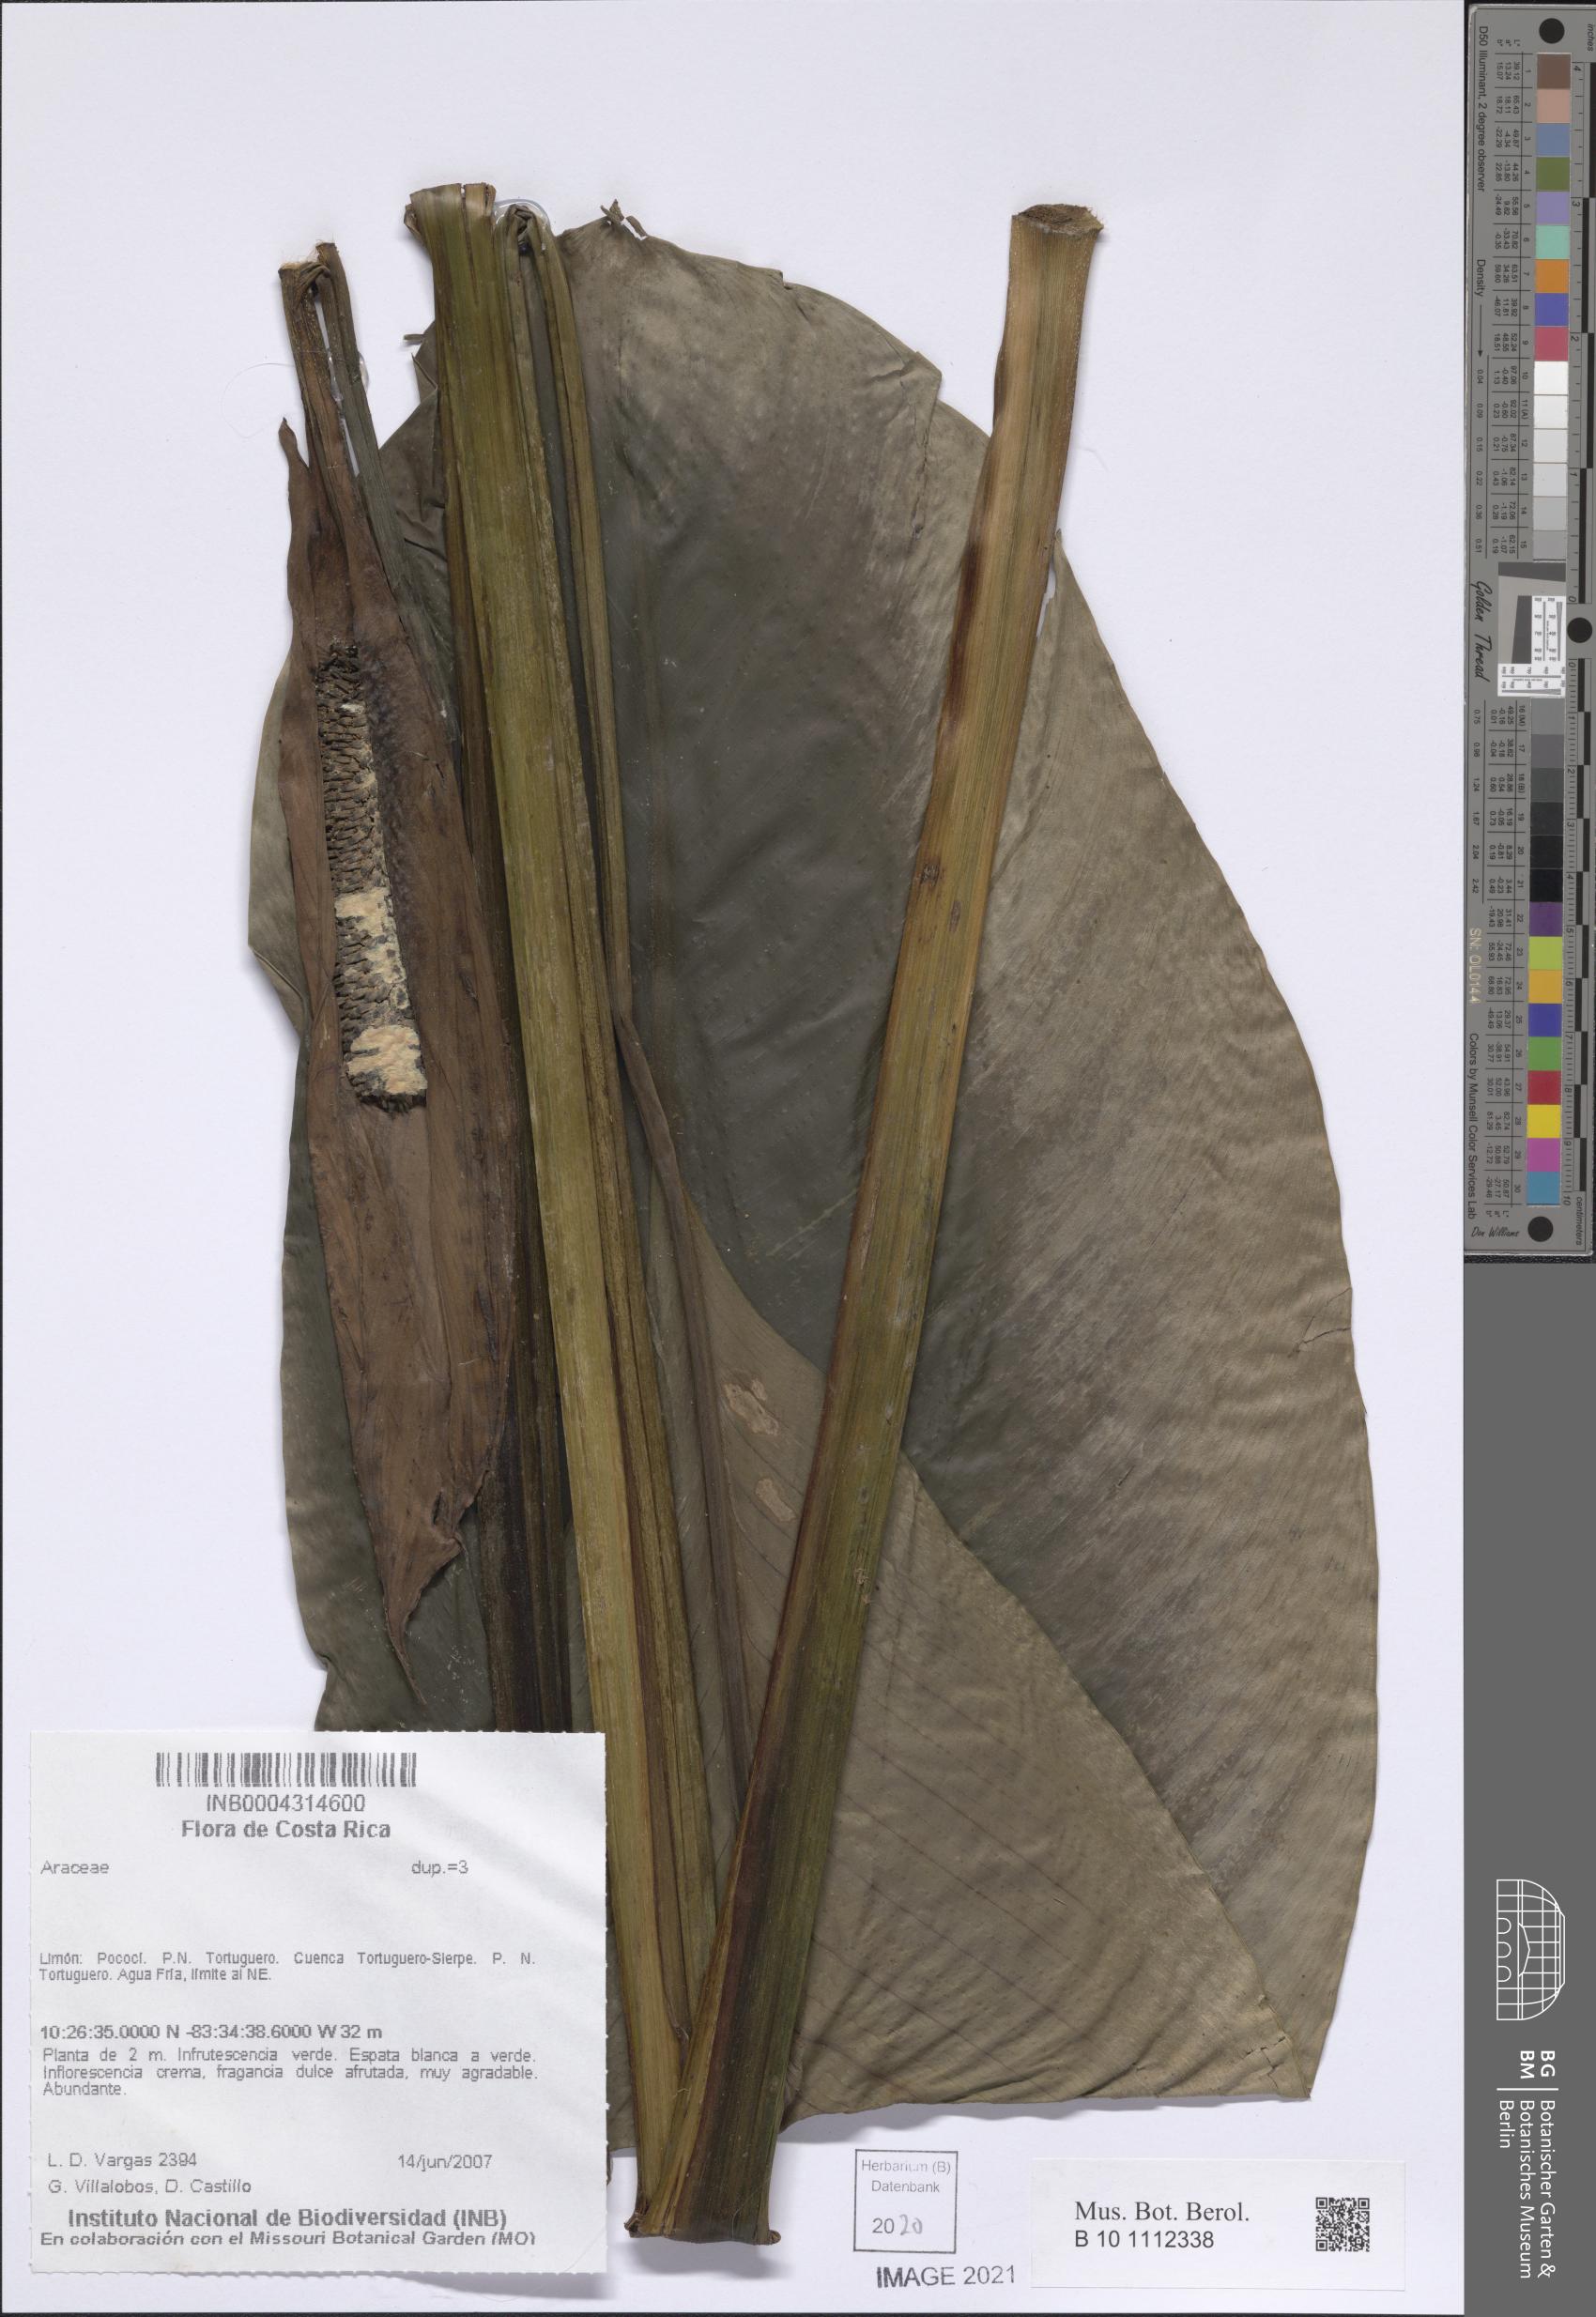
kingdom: Plantae
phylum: Tracheophyta
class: Liliopsida
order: Alismatales
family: Araceae
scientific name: Araceae
